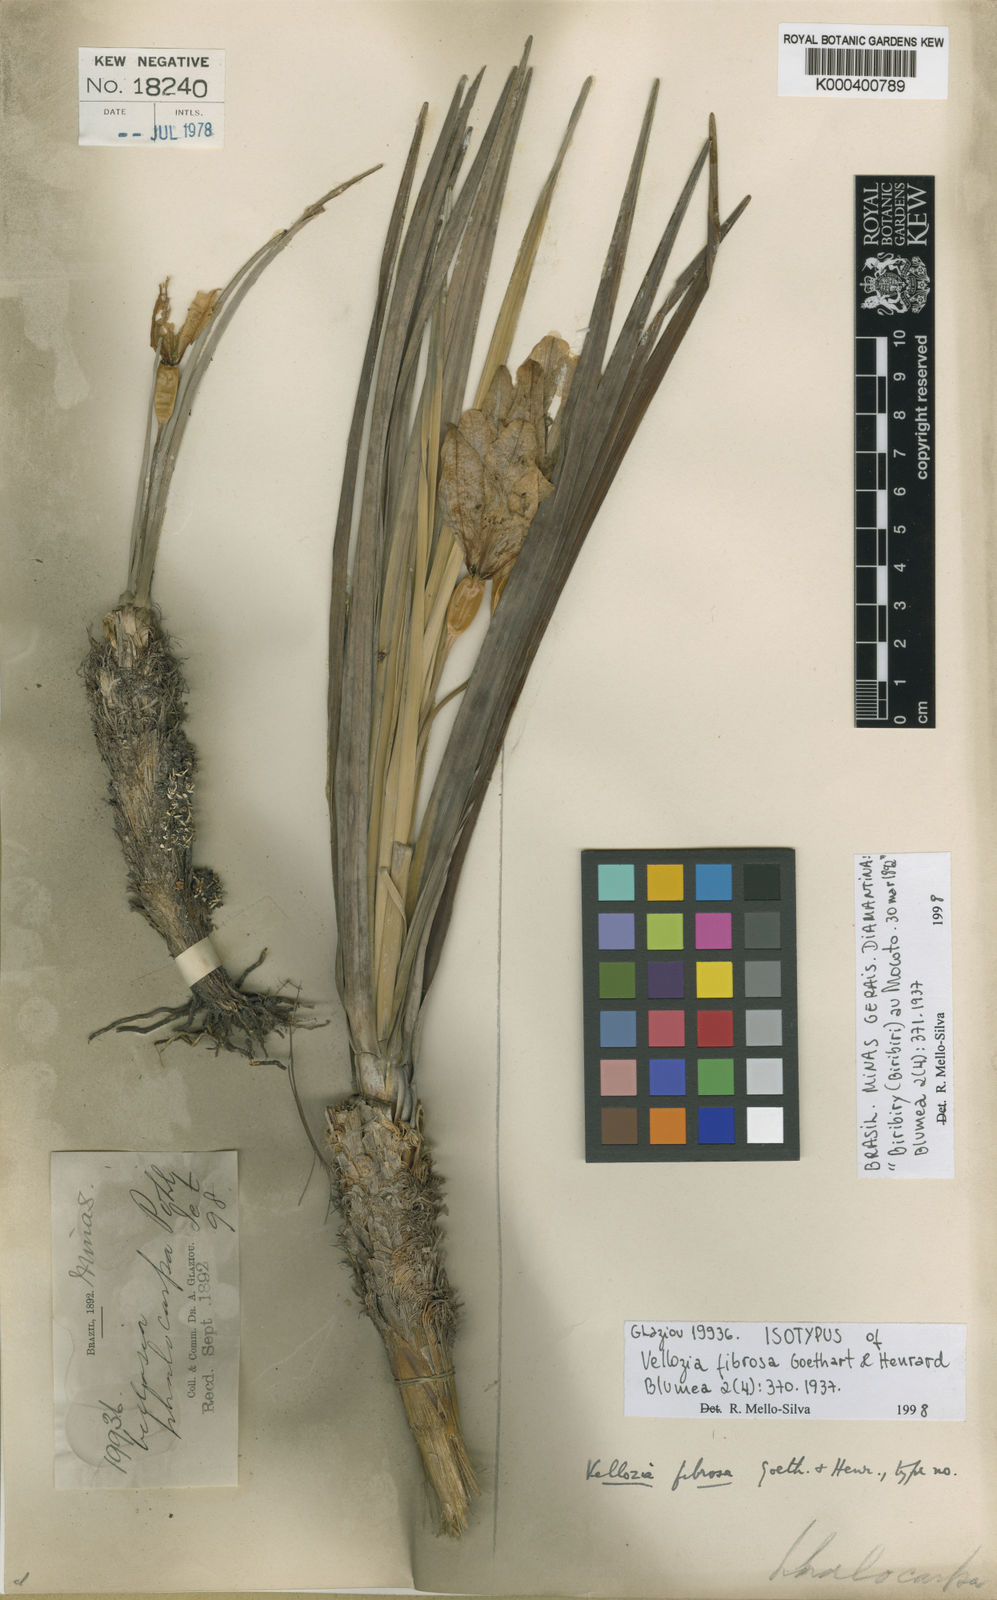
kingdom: Plantae
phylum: Tracheophyta
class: Liliopsida
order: Pandanales
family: Velloziaceae
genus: Vellozia
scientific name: Vellozia fibrosa
